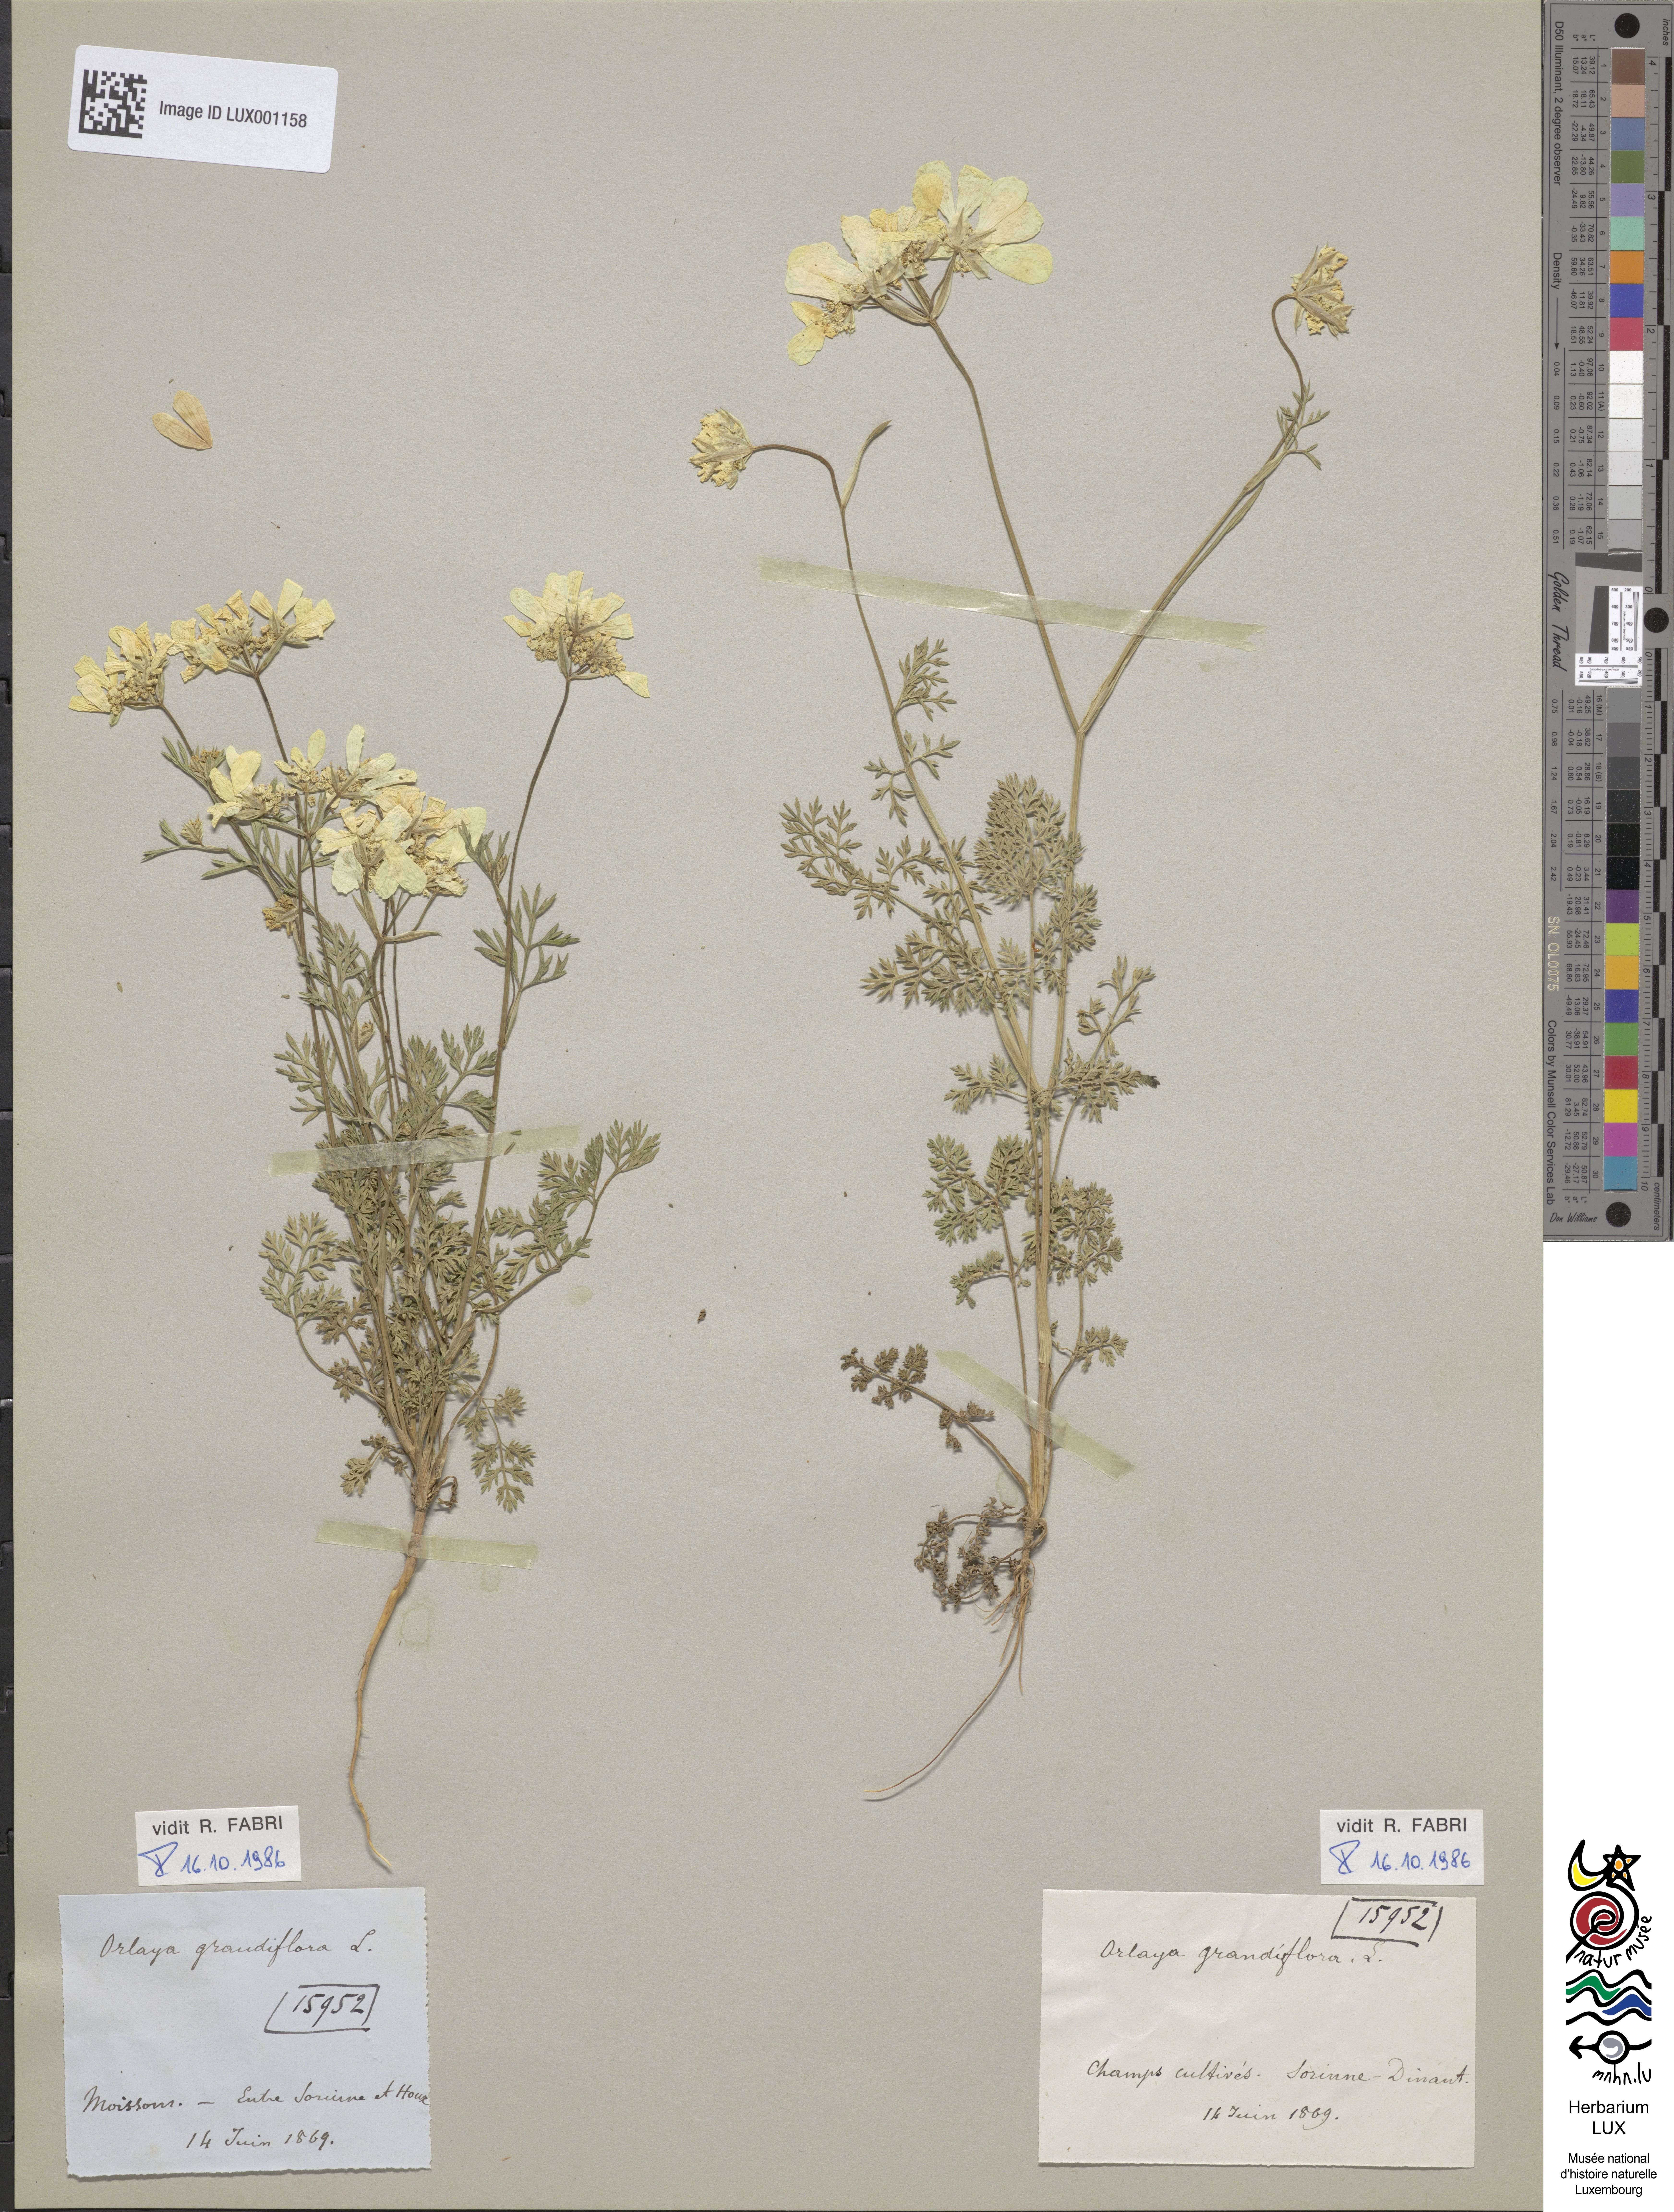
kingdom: Plantae
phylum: Tracheophyta
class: Magnoliopsida
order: Apiales
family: Apiaceae
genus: Orlaya
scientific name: Orlaya grandiflora
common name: White lace flower
